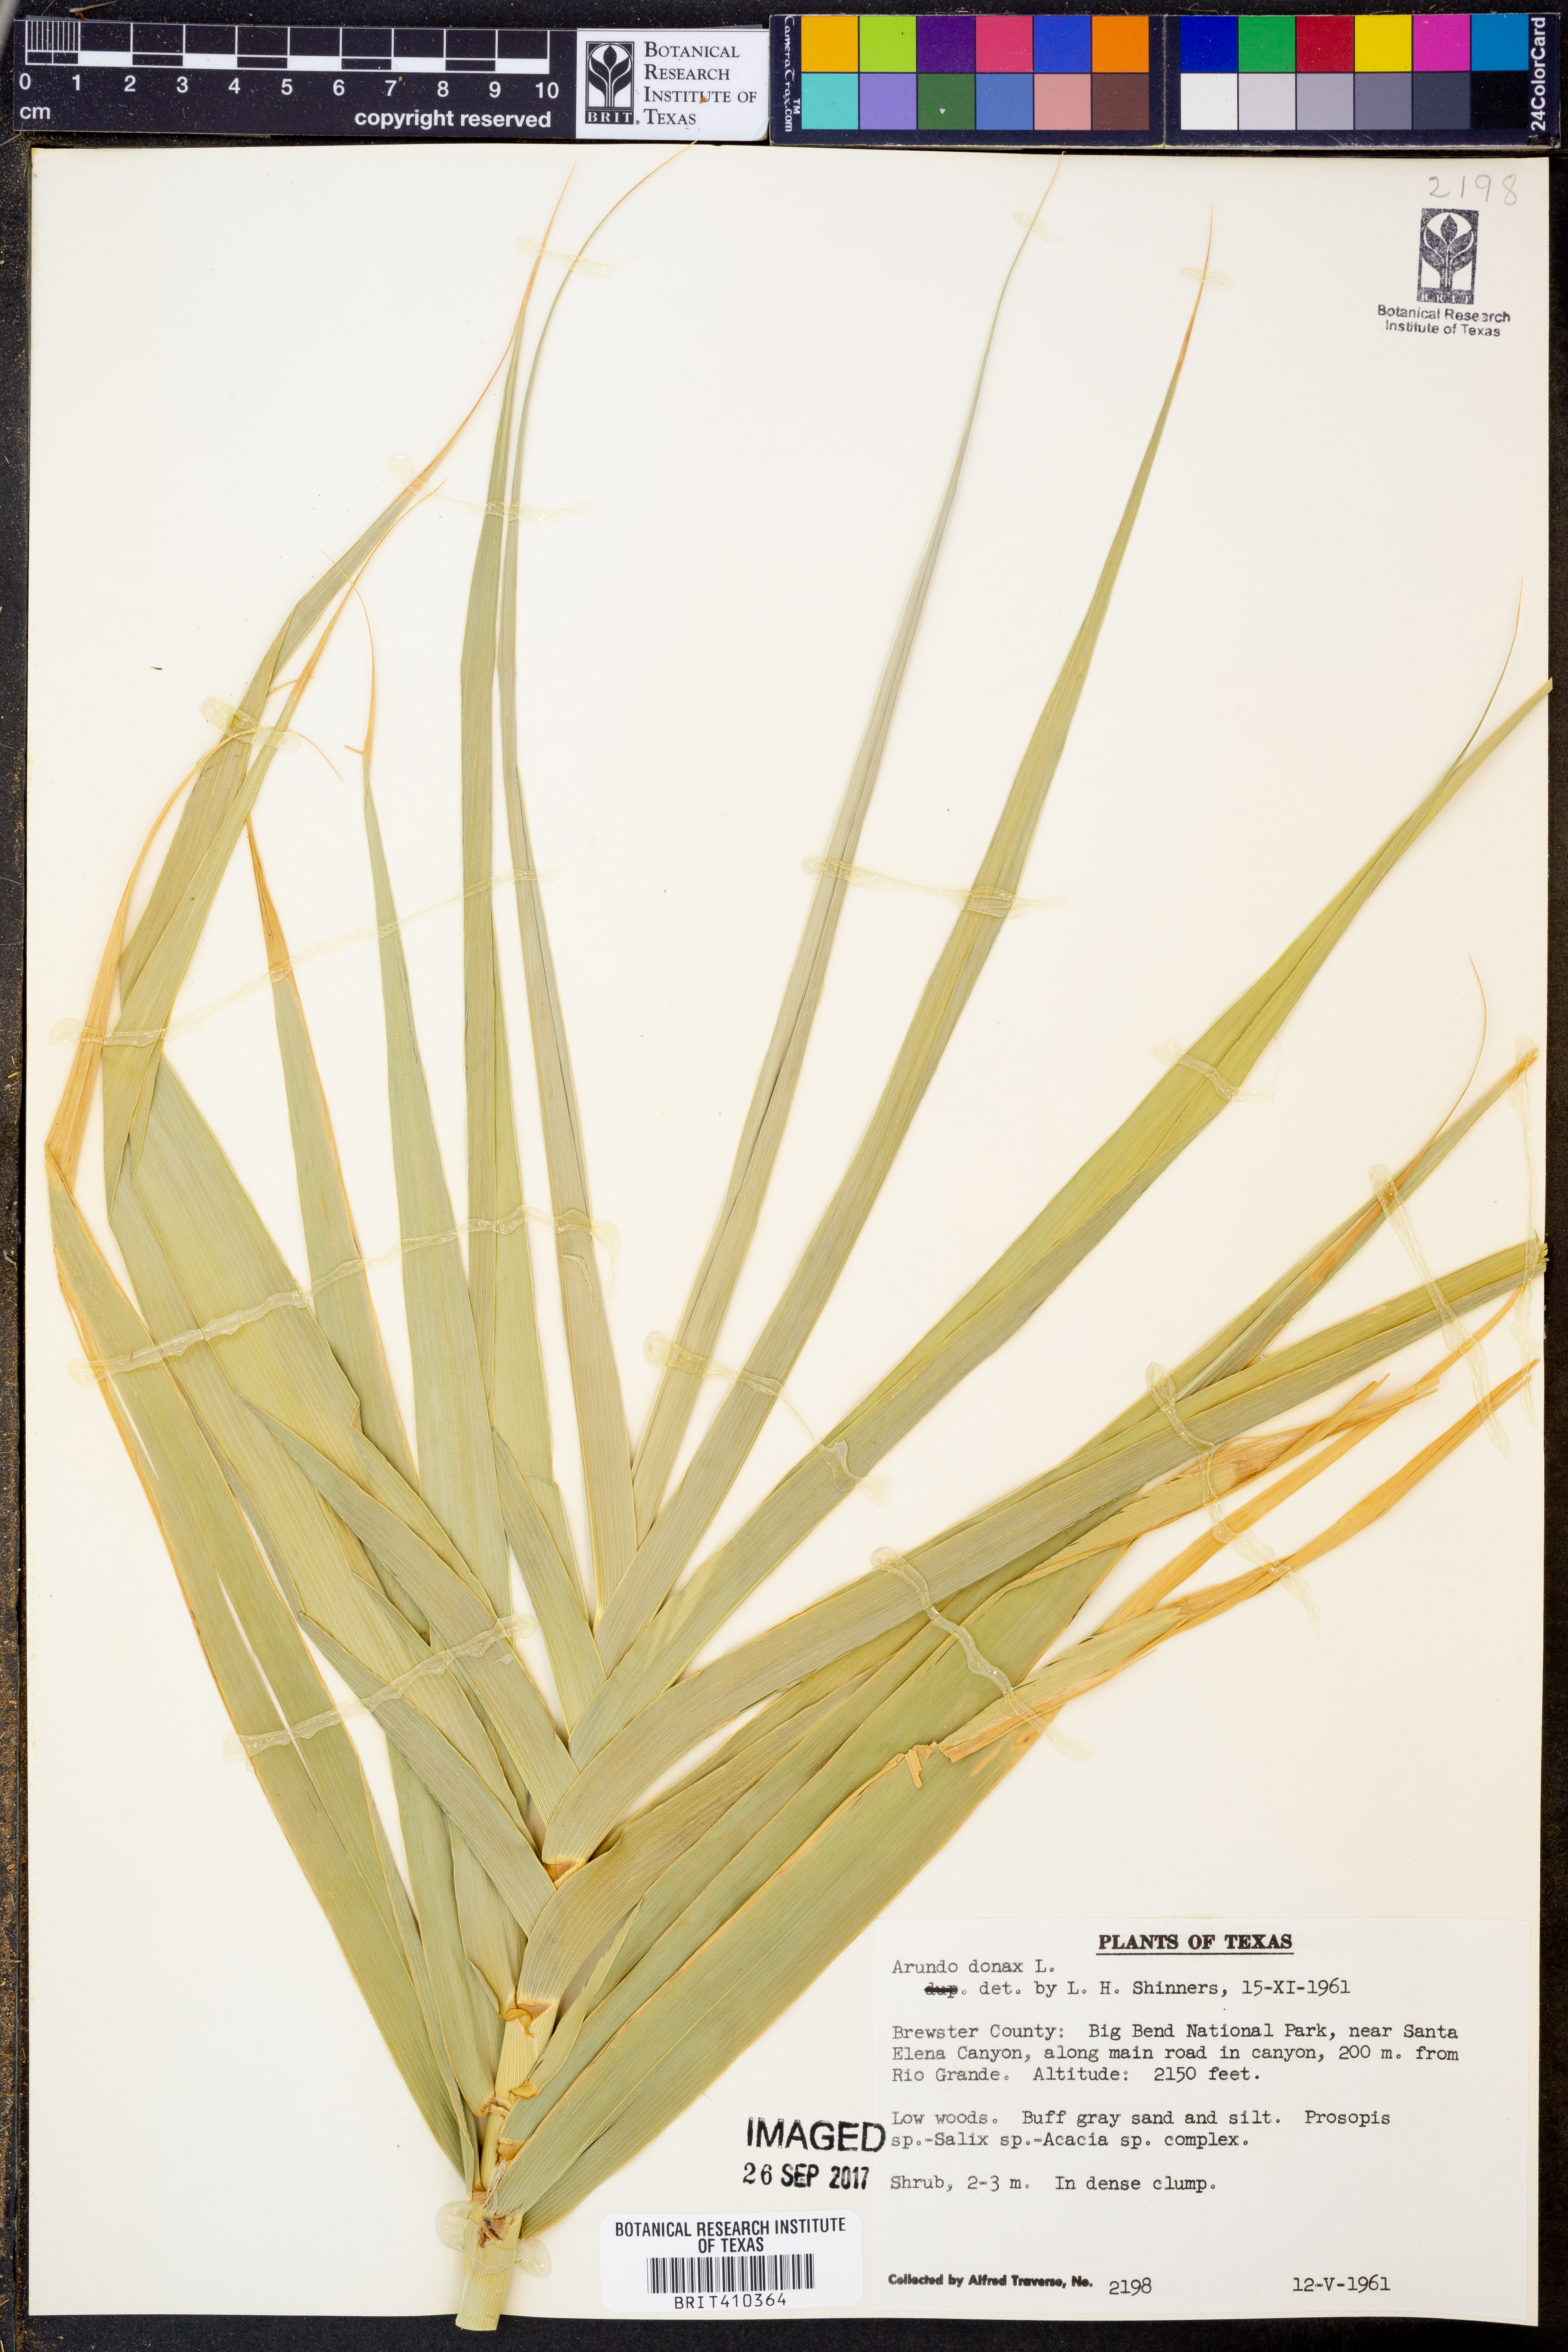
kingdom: Plantae
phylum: Tracheophyta
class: Liliopsida
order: Poales
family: Poaceae
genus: Arundo
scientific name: Arundo donax
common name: Giant reed
